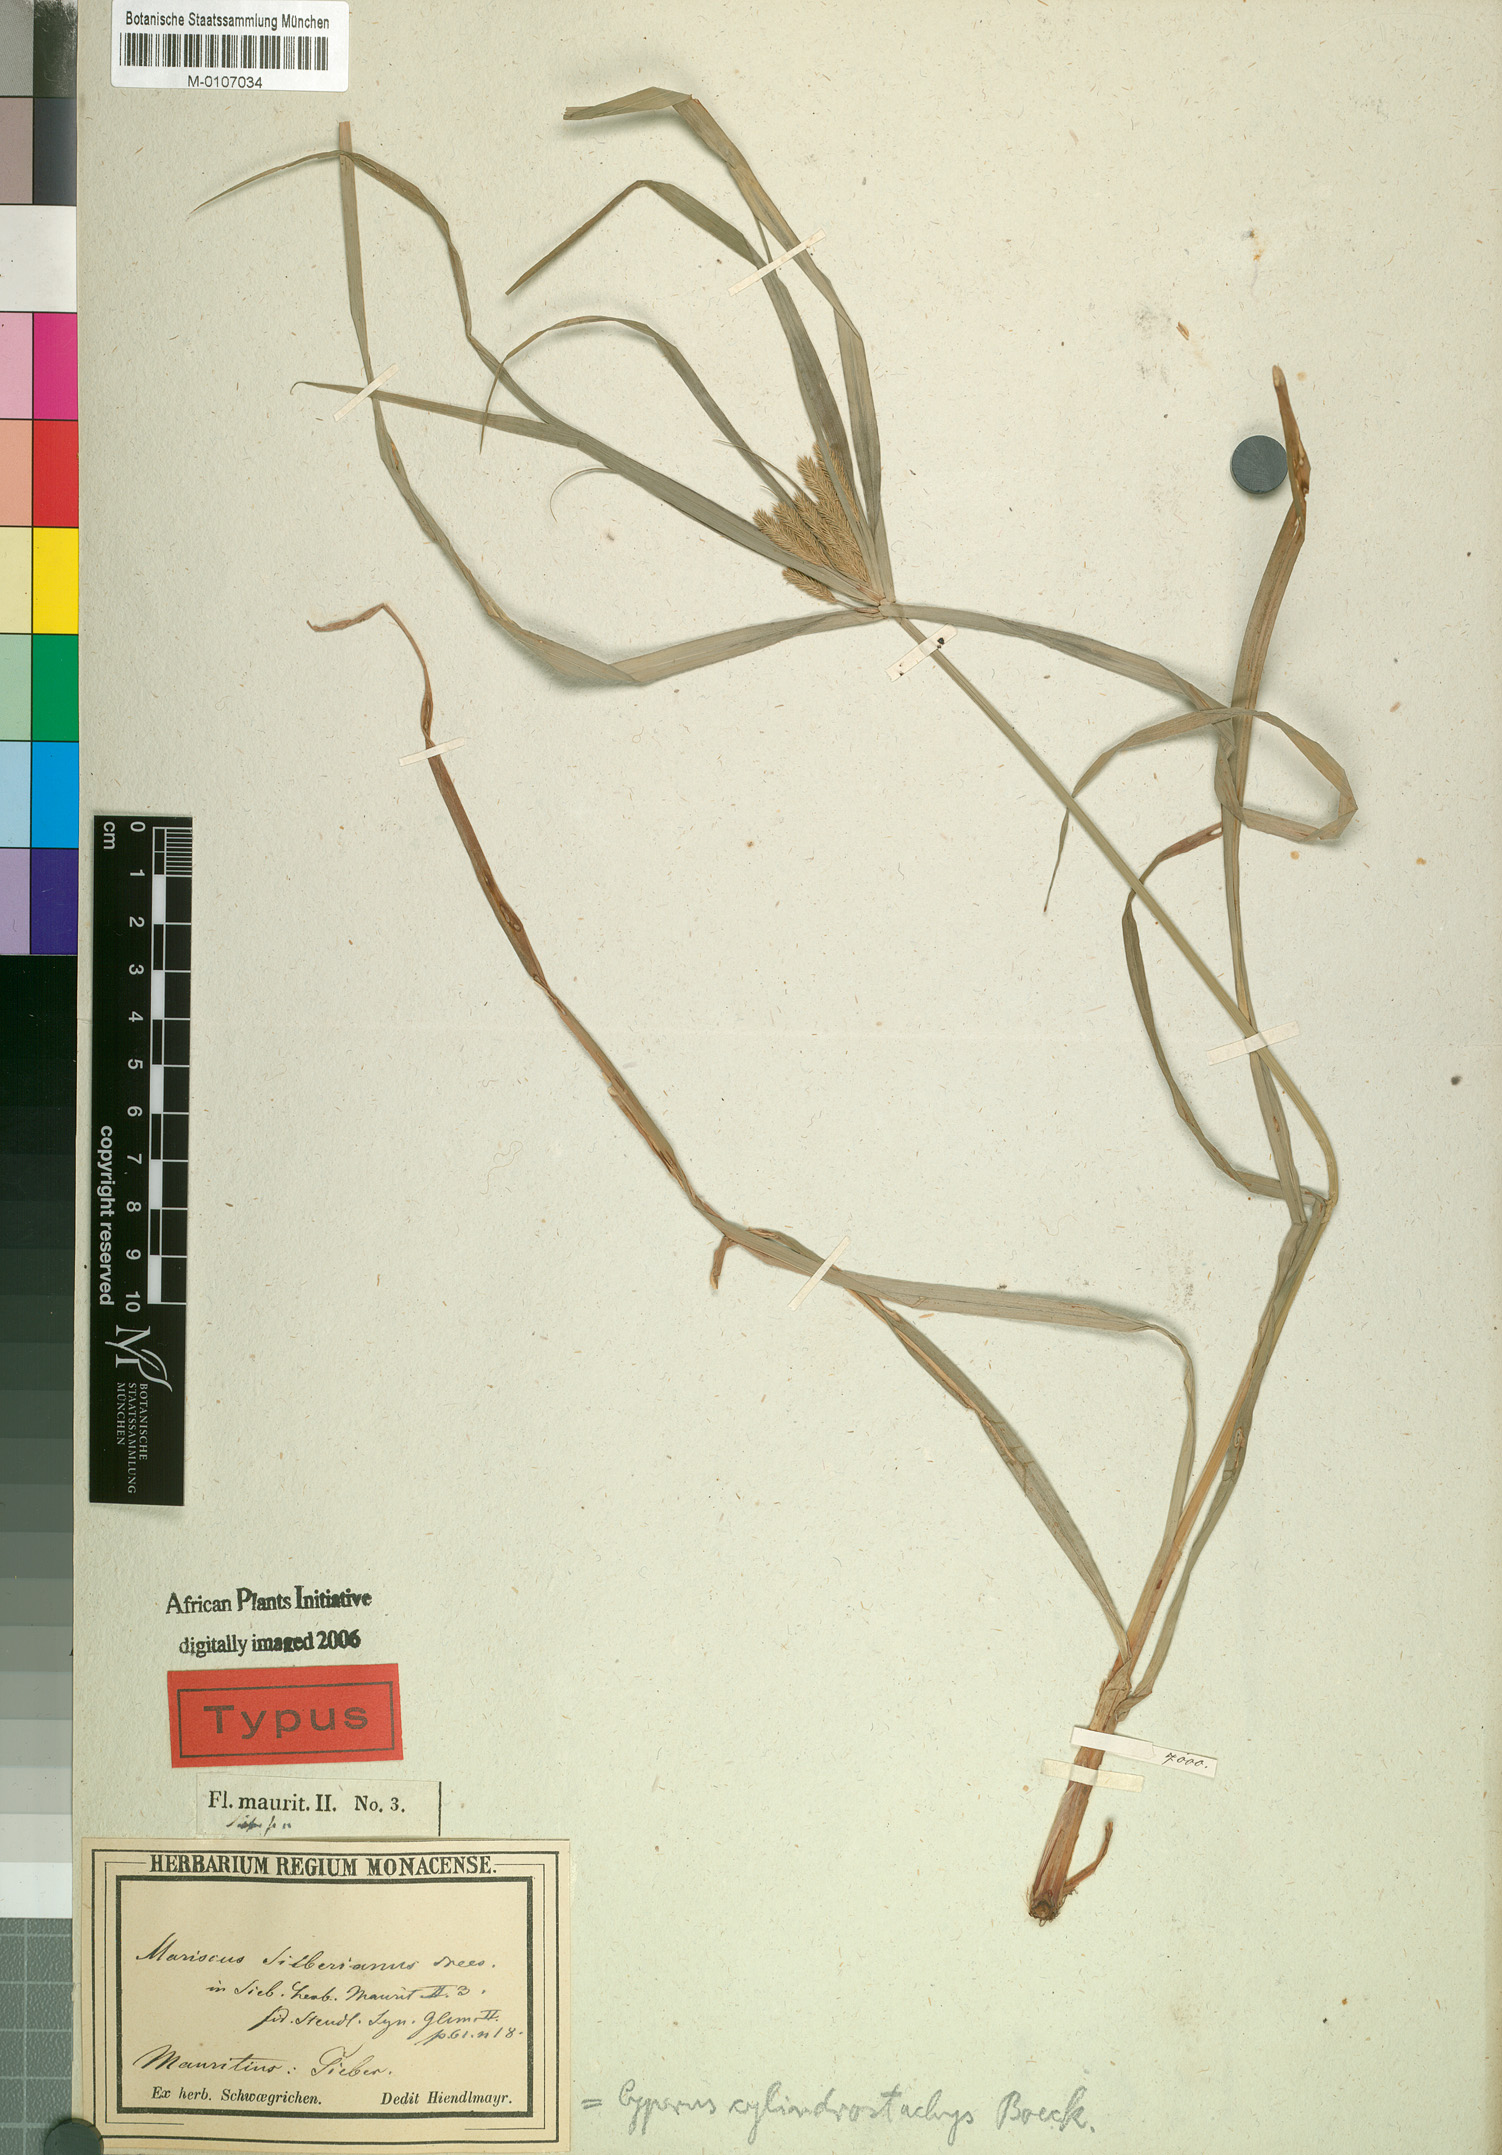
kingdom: Plantae
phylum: Tracheophyta
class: Liliopsida
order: Poales
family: Cyperaceae
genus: Cyperus
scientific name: Cyperus
